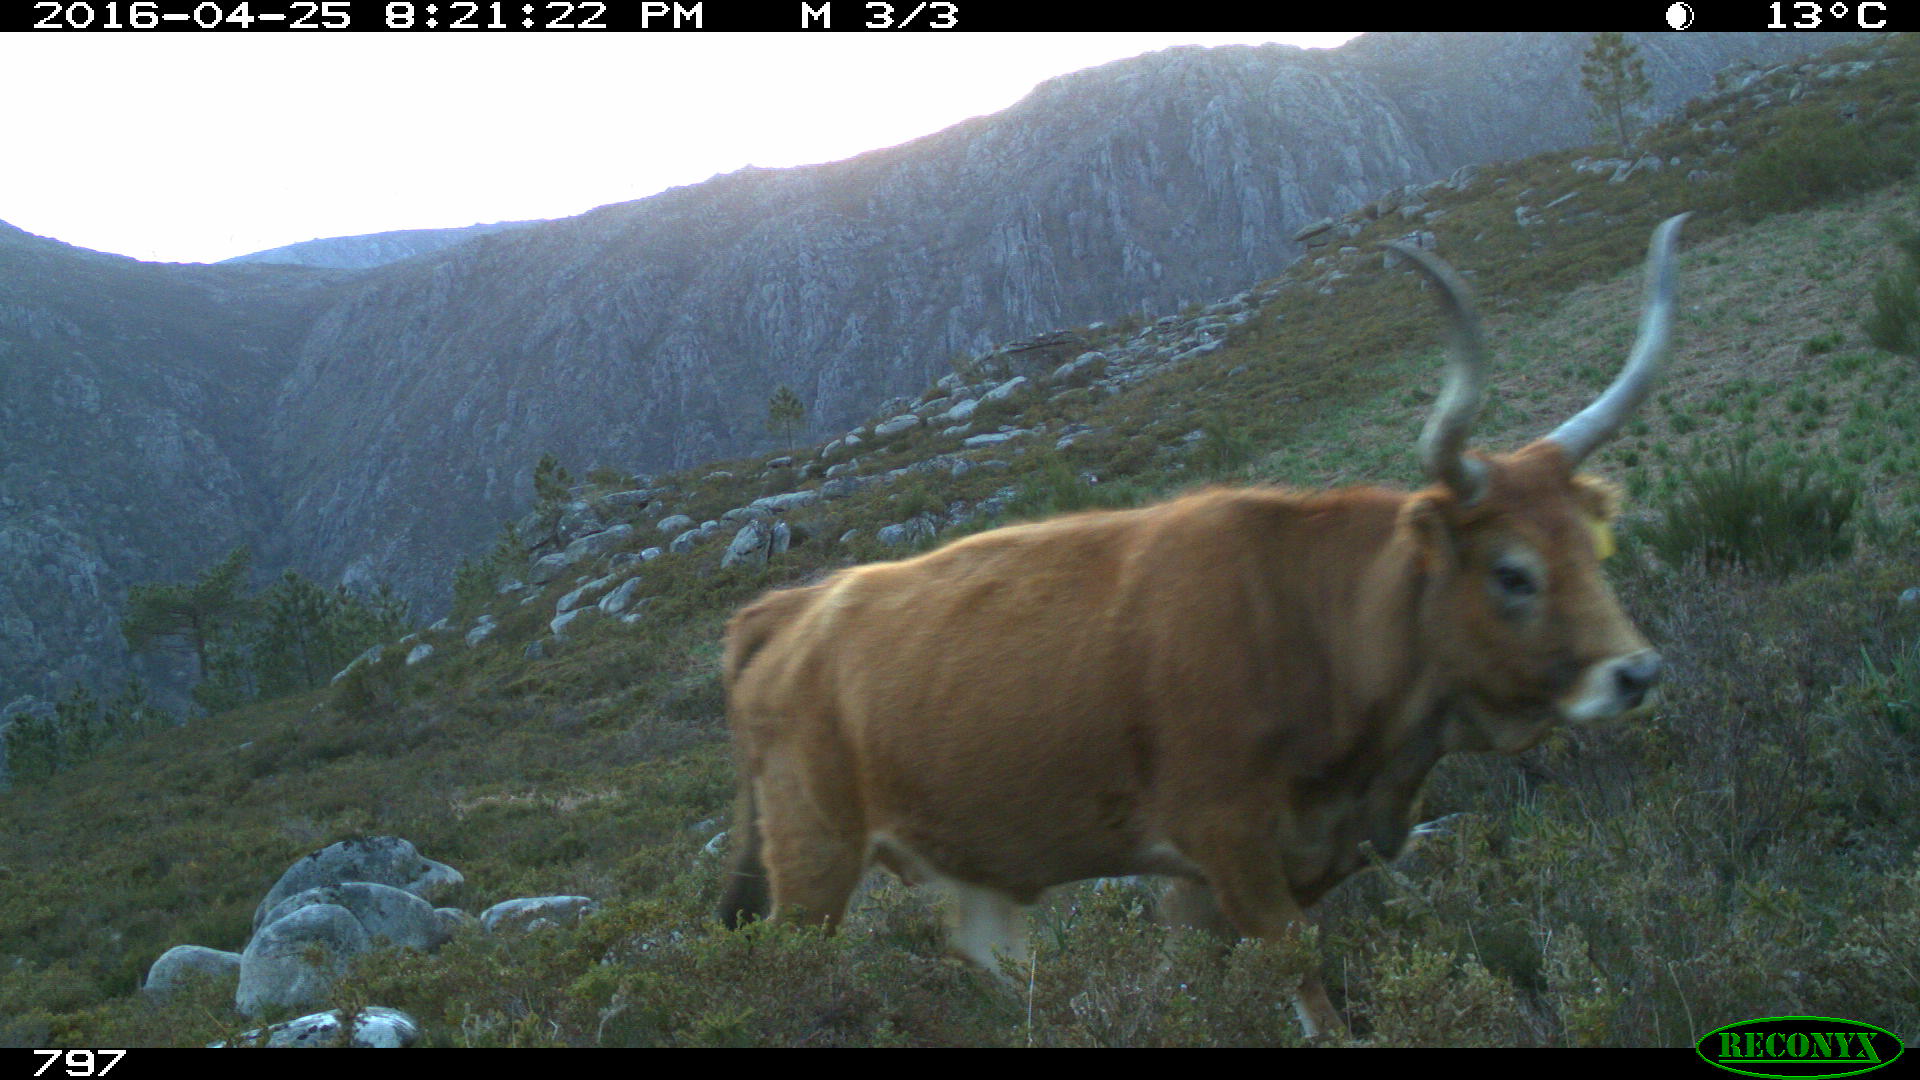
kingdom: Animalia
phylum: Chordata
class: Mammalia
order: Artiodactyla
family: Bovidae
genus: Bos
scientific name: Bos taurus
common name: Domesticated cattle
